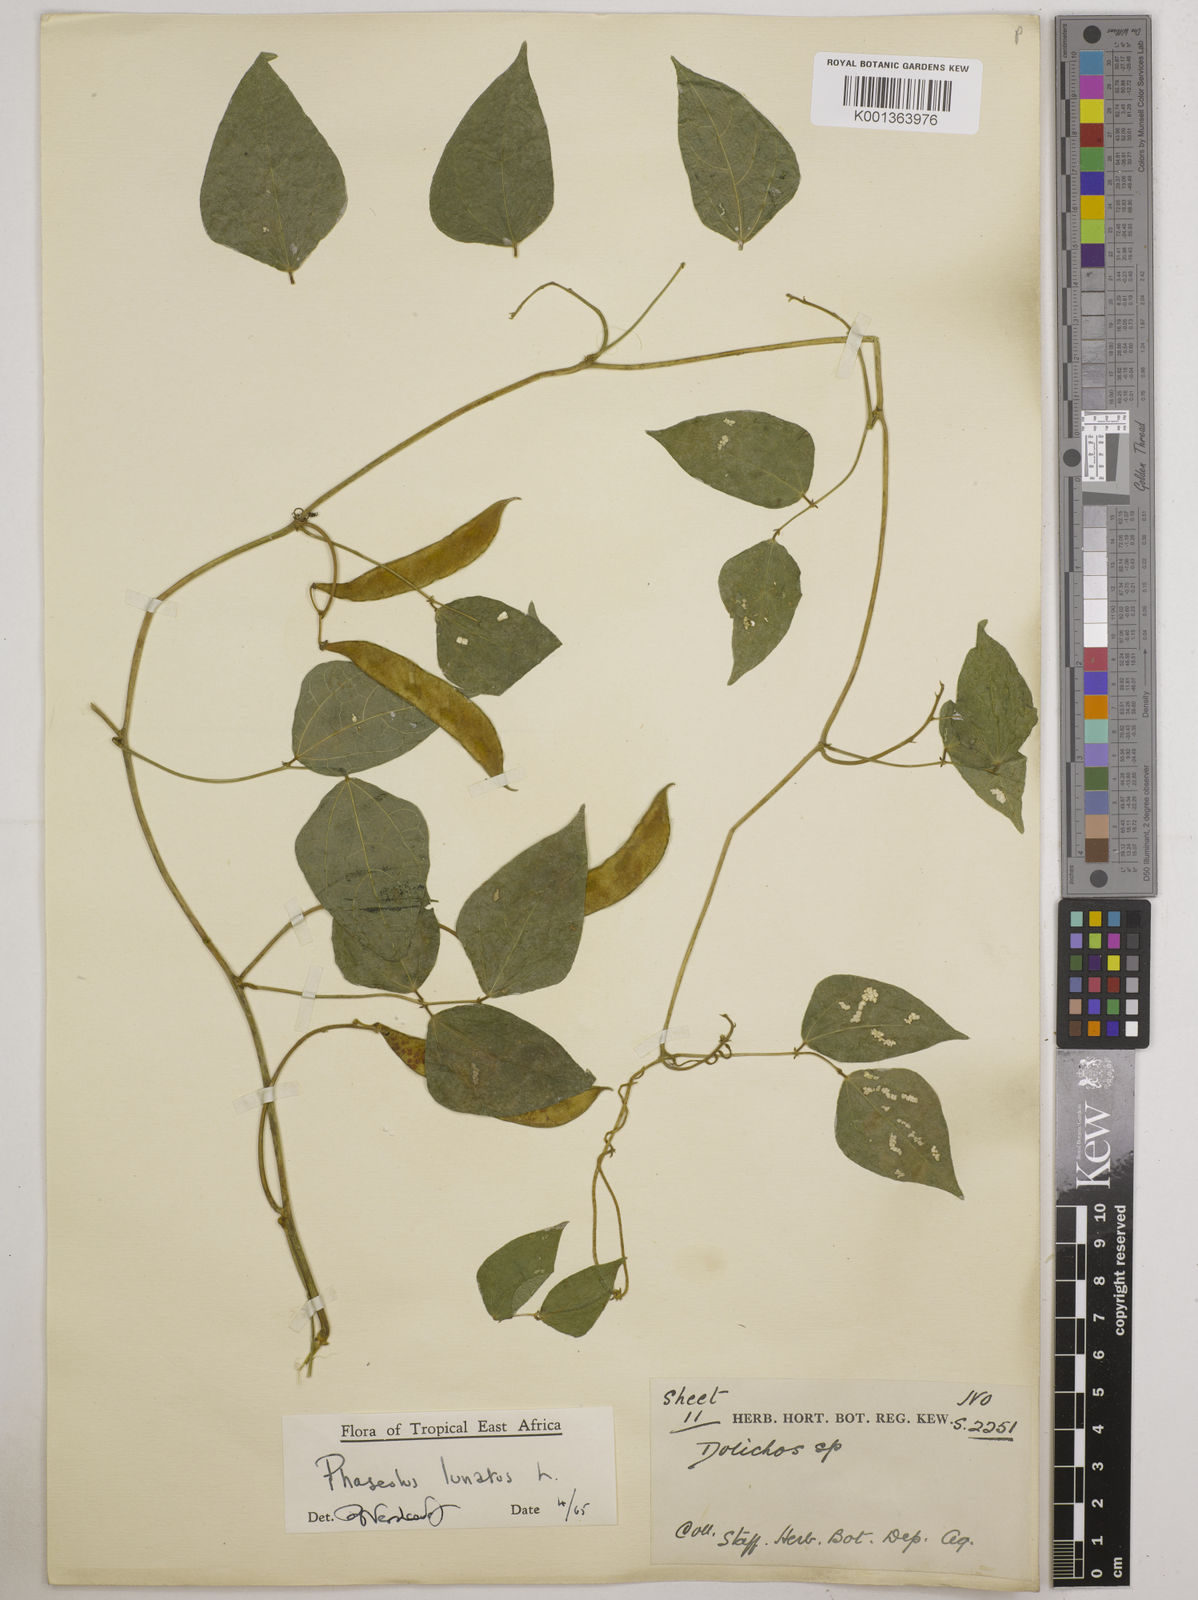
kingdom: Plantae
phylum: Tracheophyta
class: Magnoliopsida
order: Fabales
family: Fabaceae
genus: Phaseolus
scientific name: Phaseolus lunatus
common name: Sieva bean
